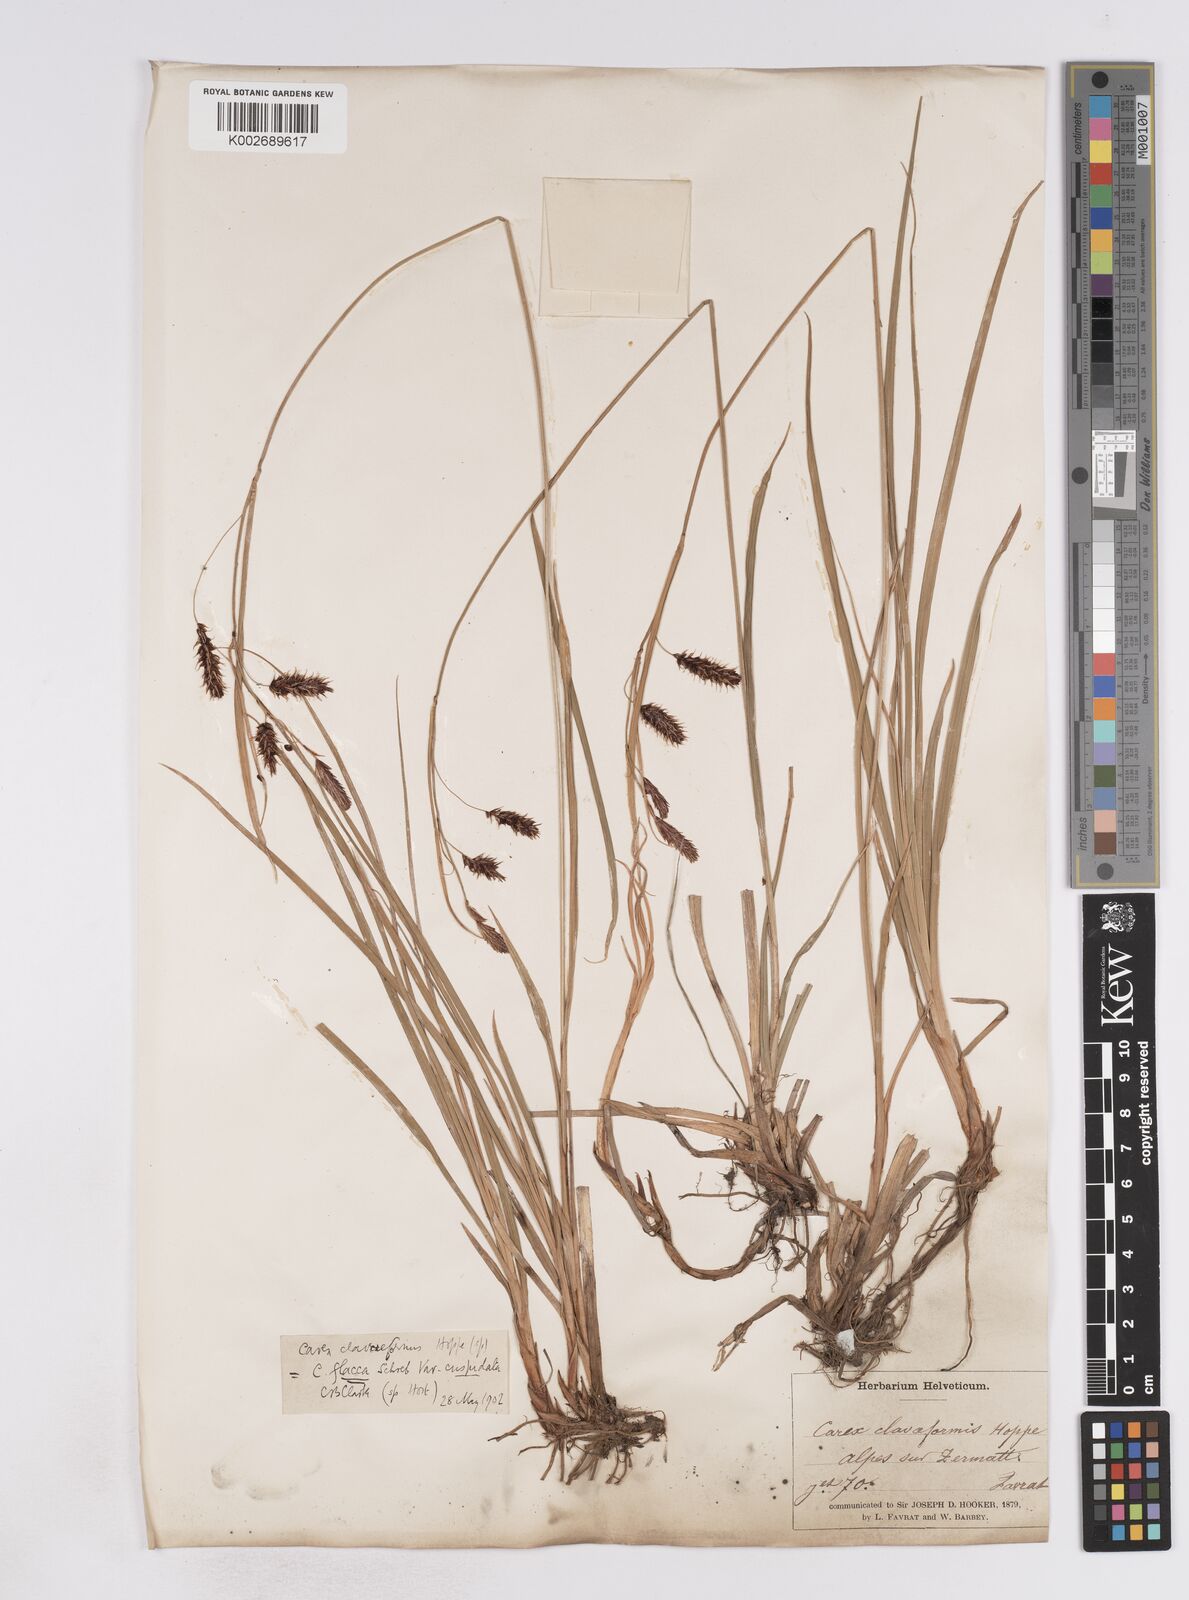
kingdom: Plantae
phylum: Tracheophyta
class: Liliopsida
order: Poales
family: Cyperaceae
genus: Carex
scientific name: Carex flacca
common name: Glaucous sedge
